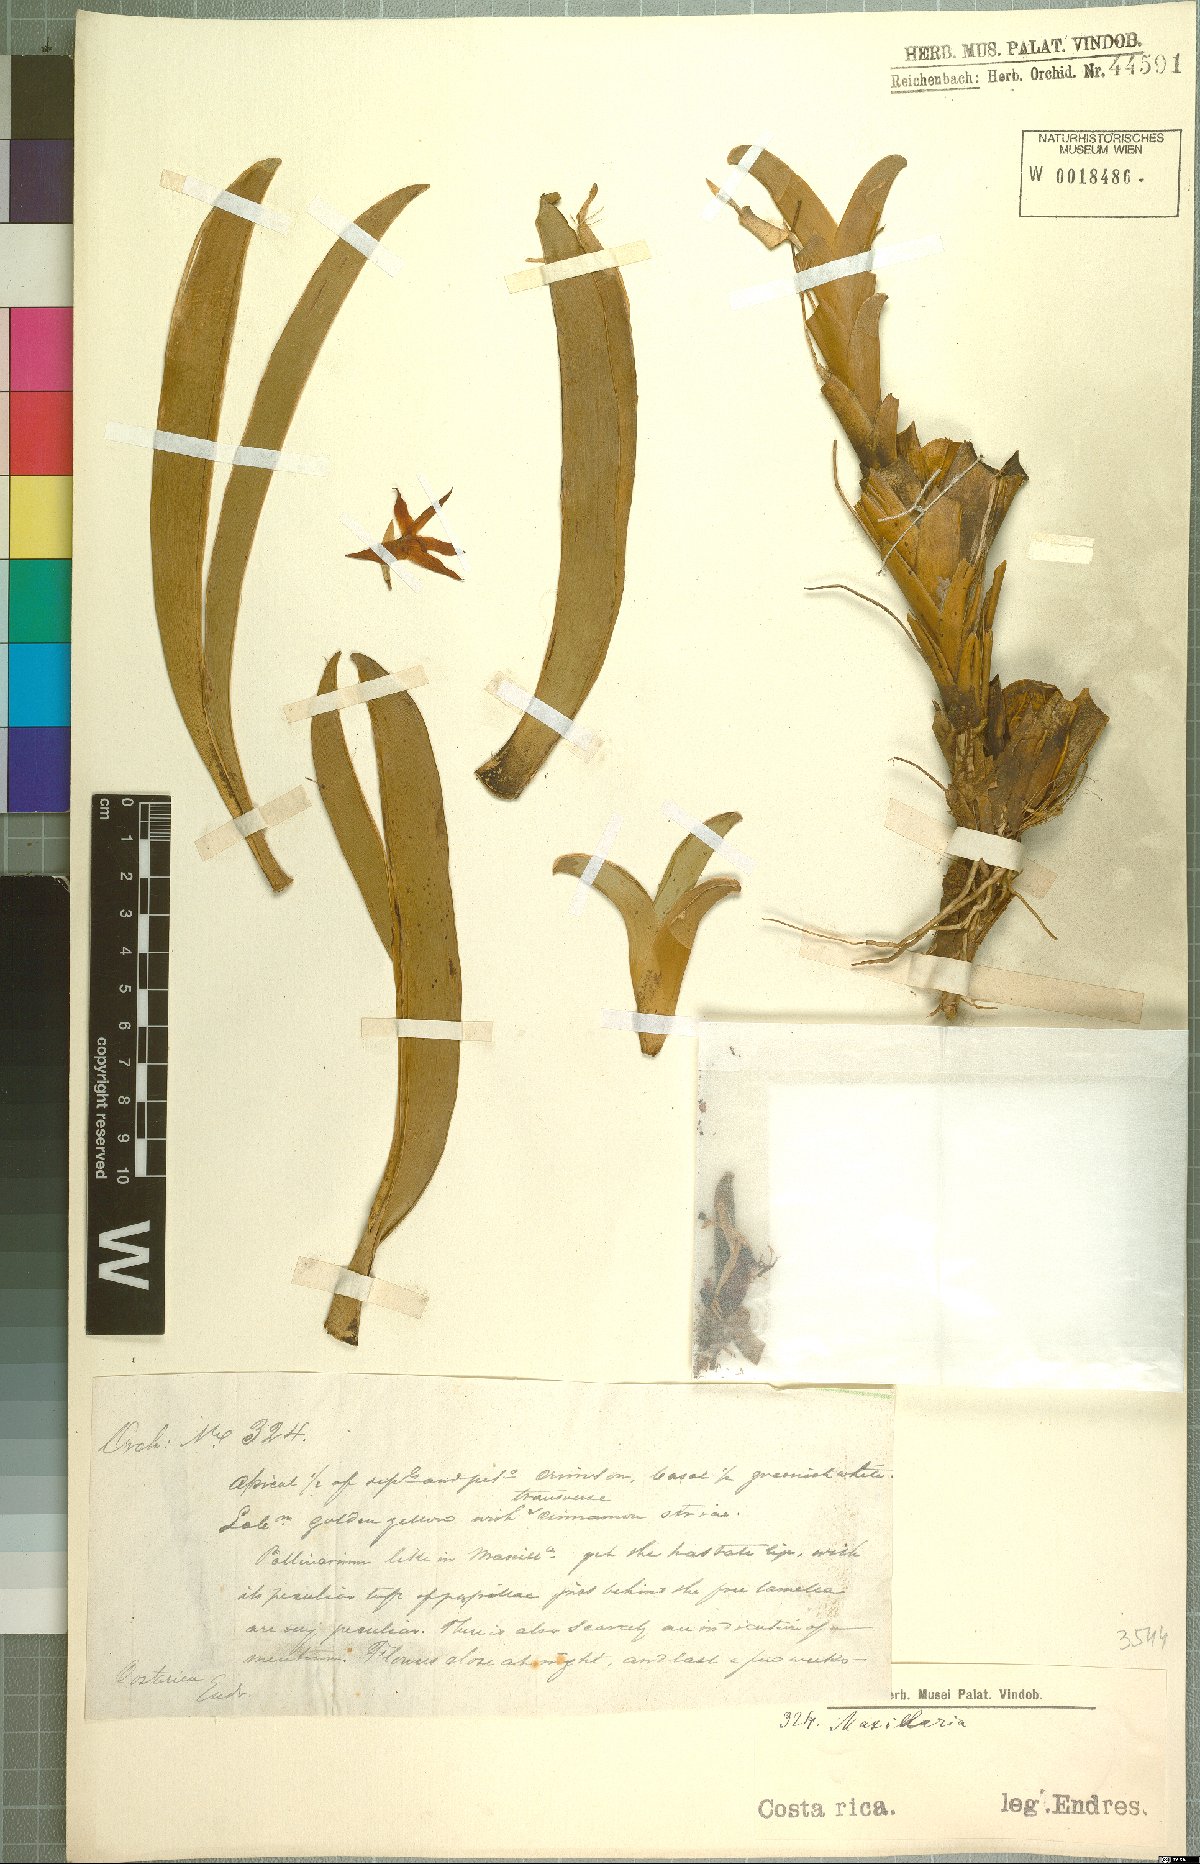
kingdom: Plantae
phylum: Tracheophyta
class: Liliopsida
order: Asparagales
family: Orchidaceae
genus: Maxillaria
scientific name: Maxillaria
